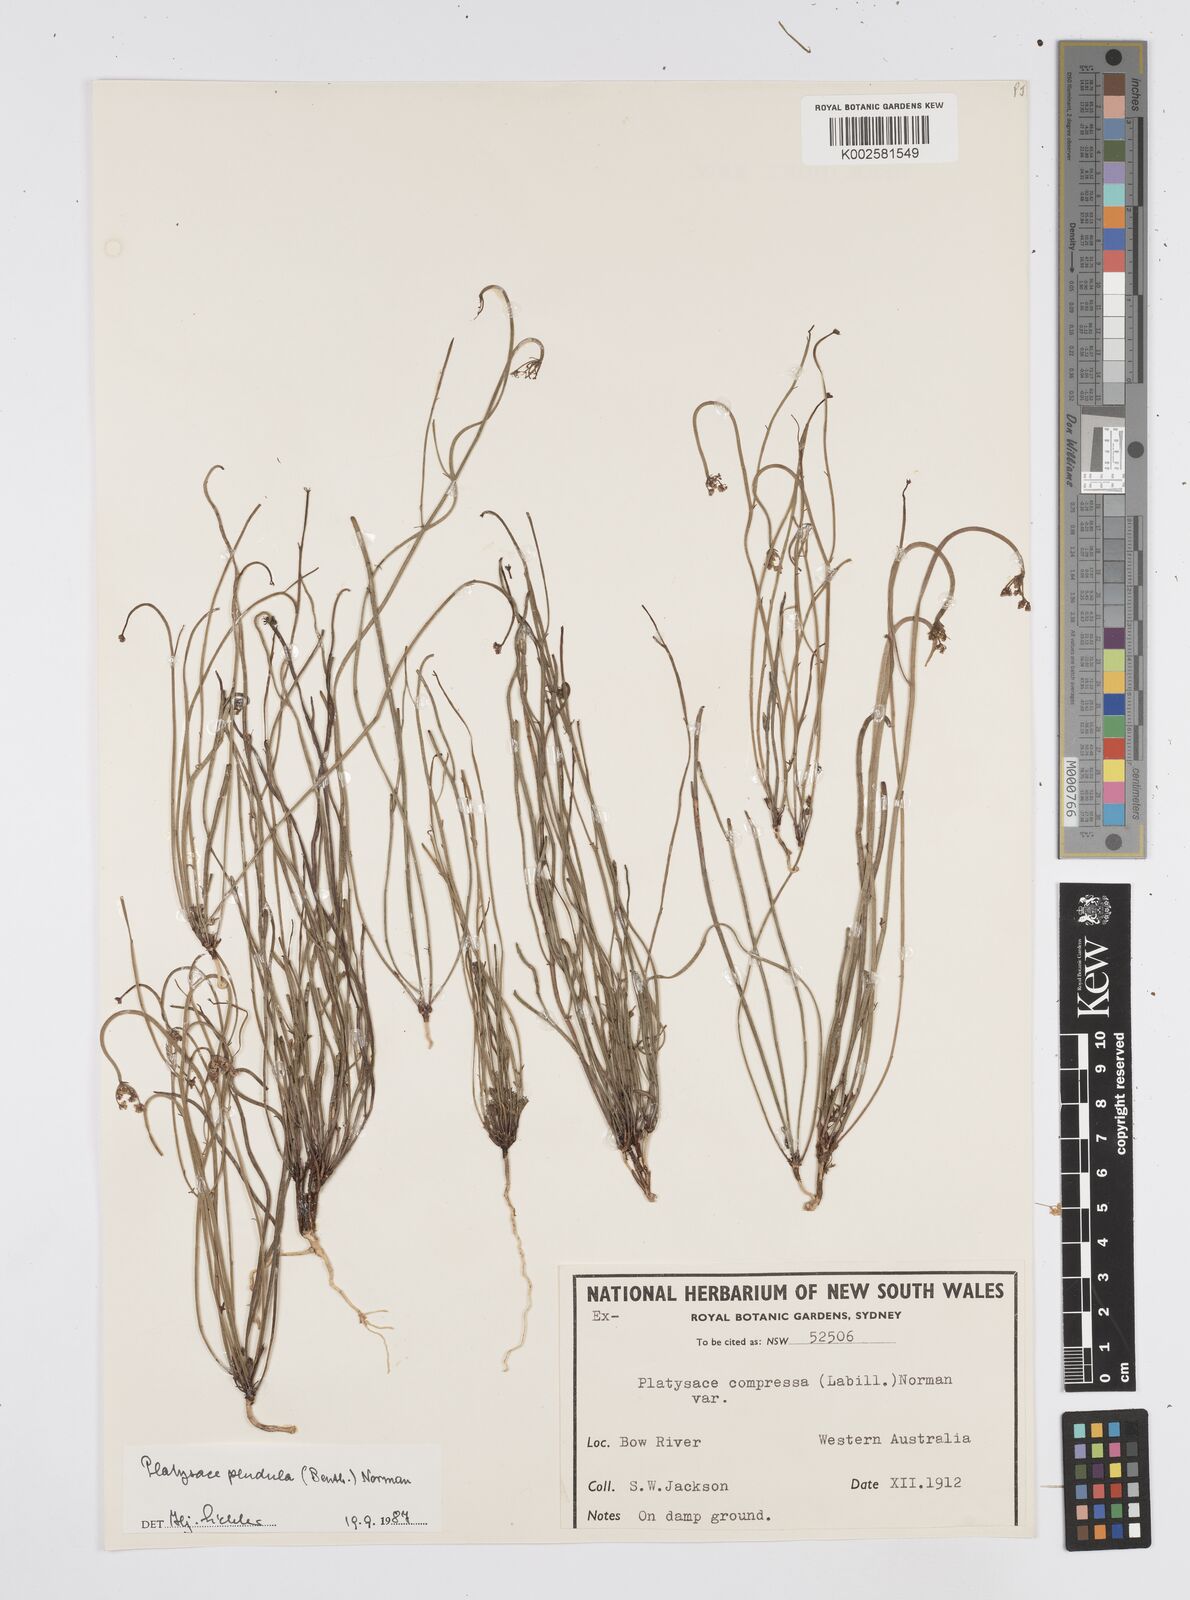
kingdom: Plantae
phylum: Tracheophyta
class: Magnoliopsida
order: Apiales
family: Apiaceae
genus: Centella
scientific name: Centella
